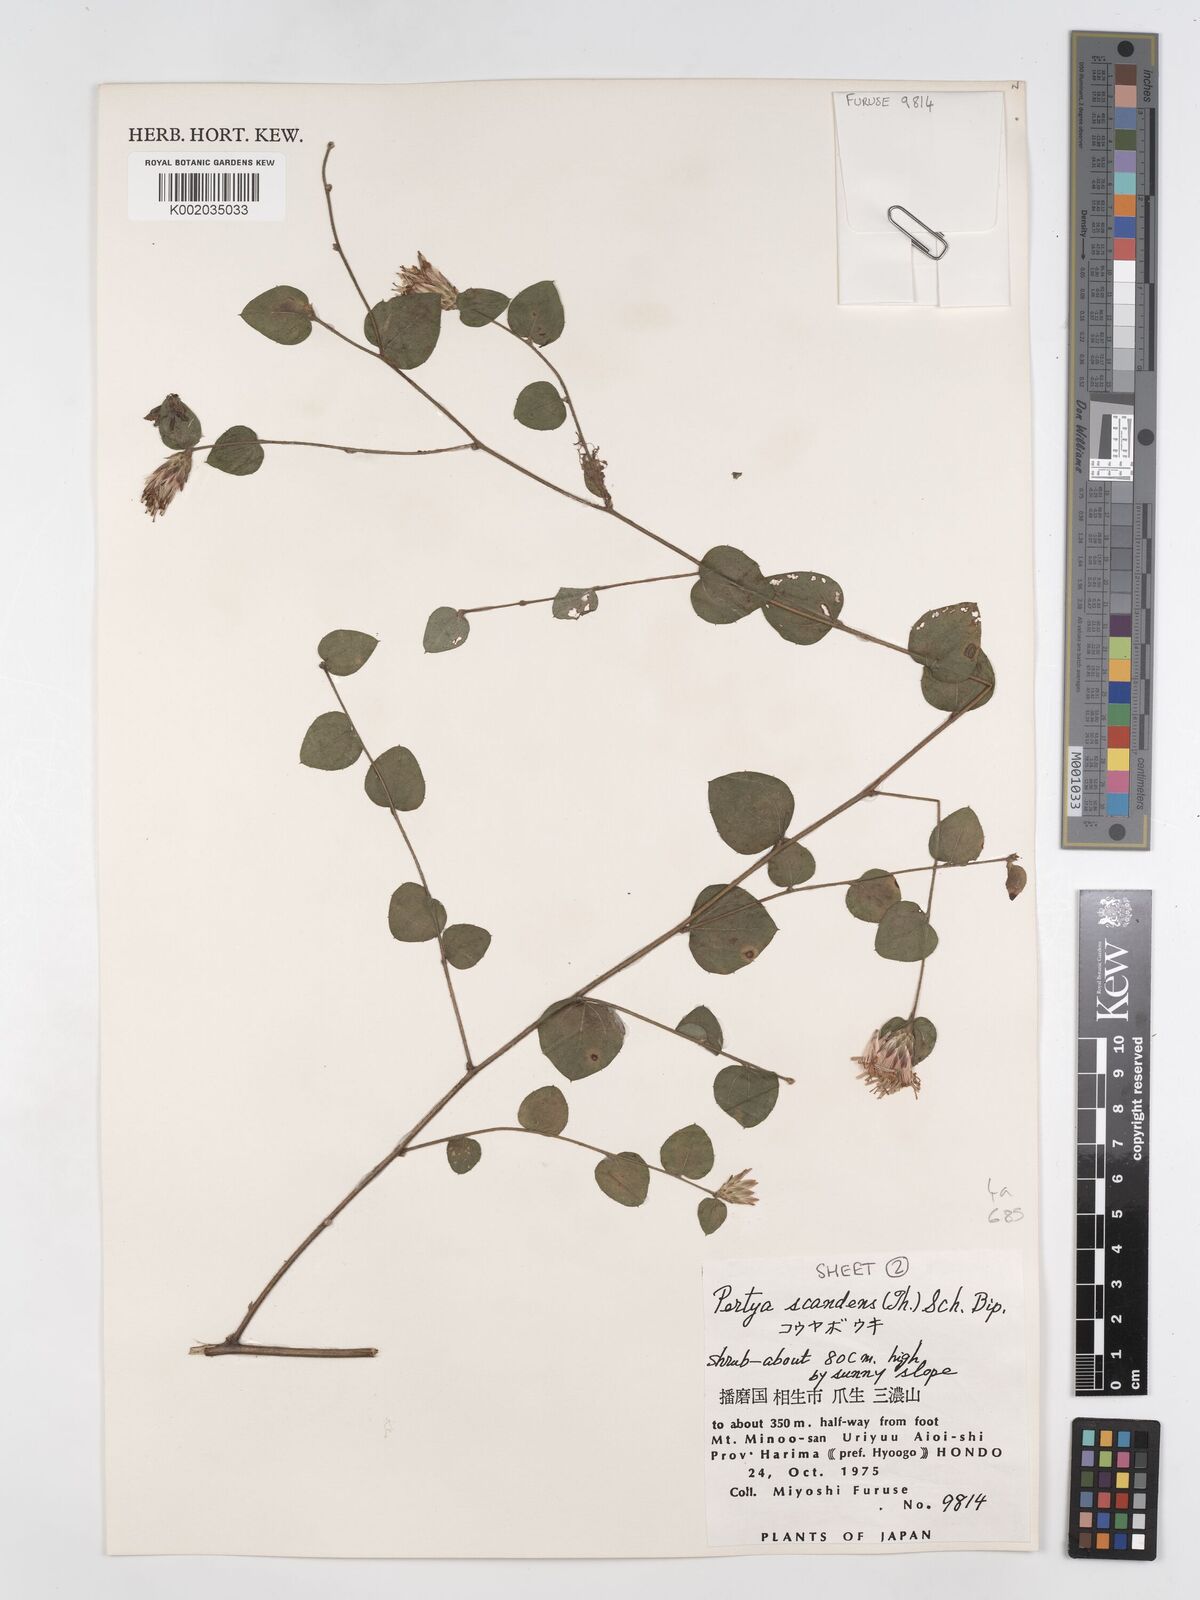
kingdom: Plantae
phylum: Tracheophyta
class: Magnoliopsida
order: Asterales
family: Asteraceae
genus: Pertya
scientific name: Pertya scandens
